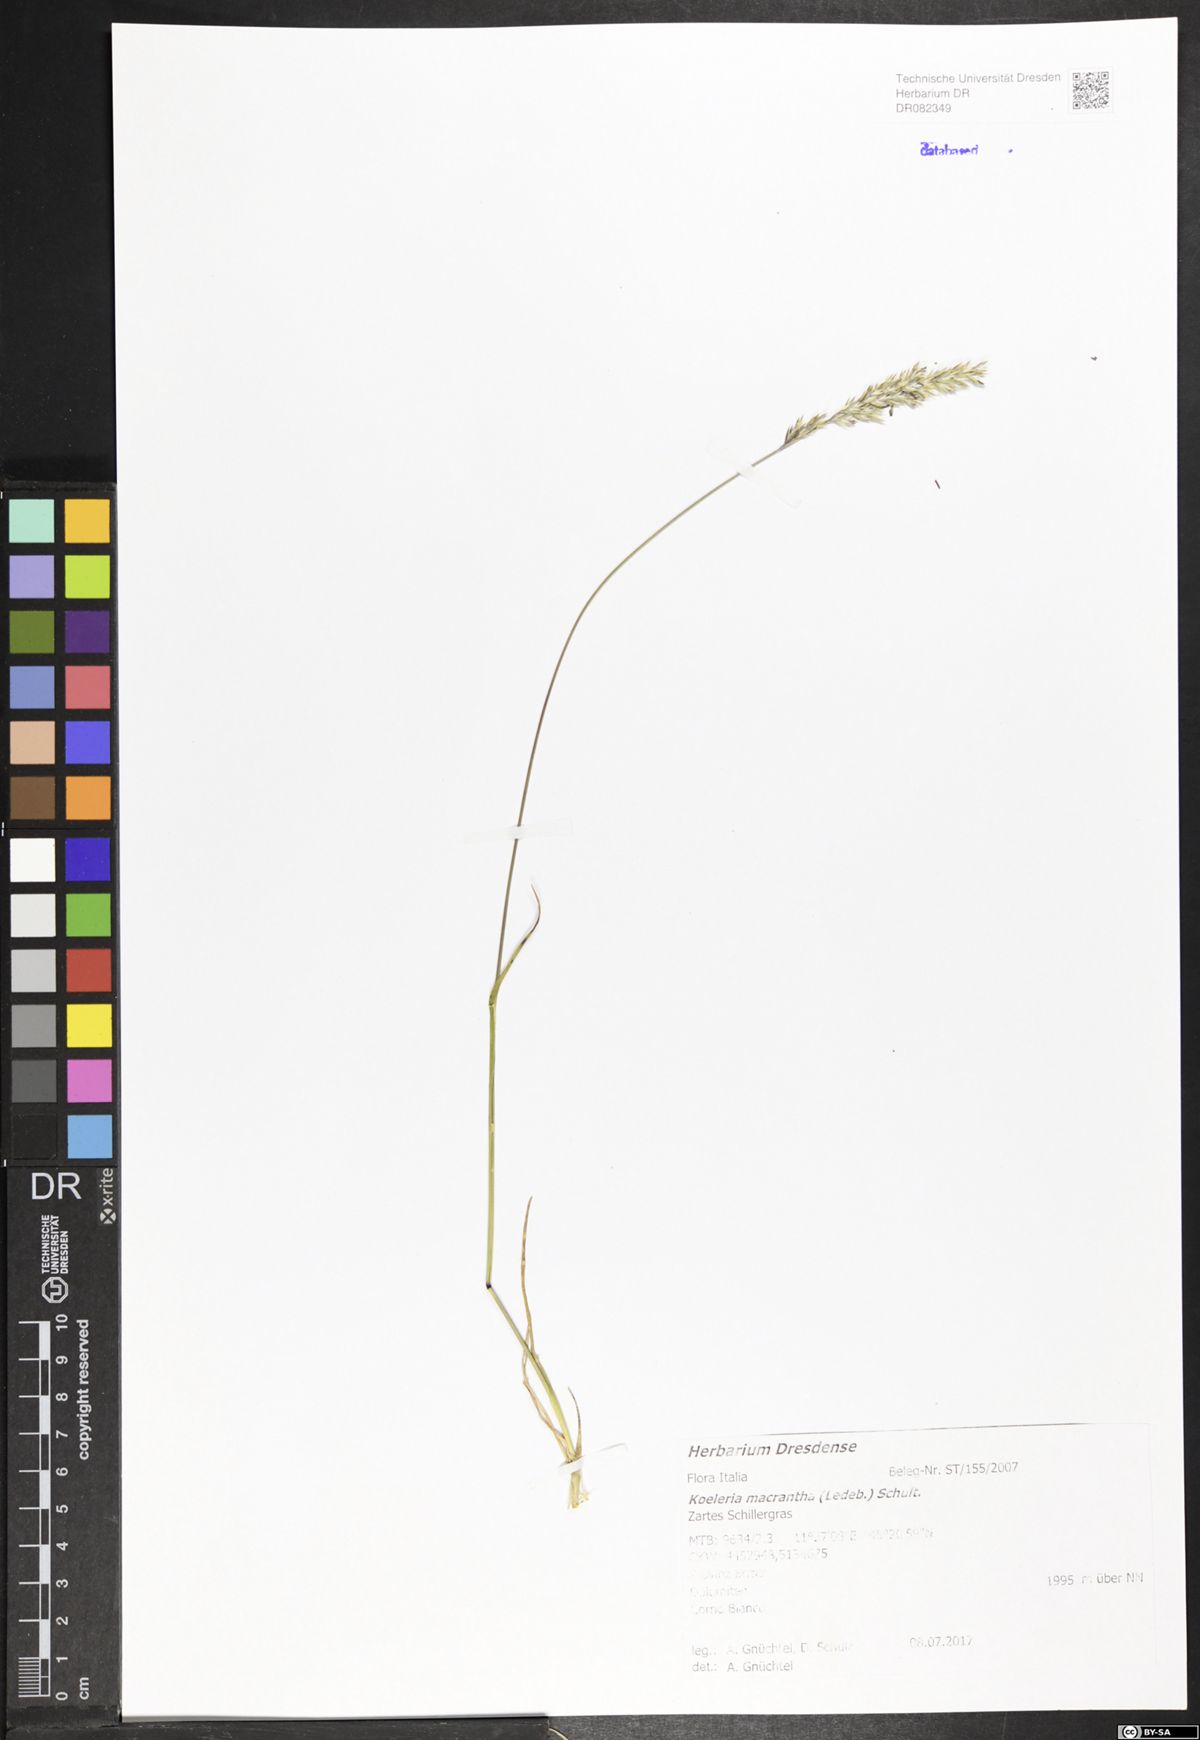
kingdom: Plantae
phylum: Tracheophyta
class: Liliopsida
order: Poales
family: Poaceae
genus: Koeleria
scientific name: Koeleria macrantha
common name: Crested hair-grass
